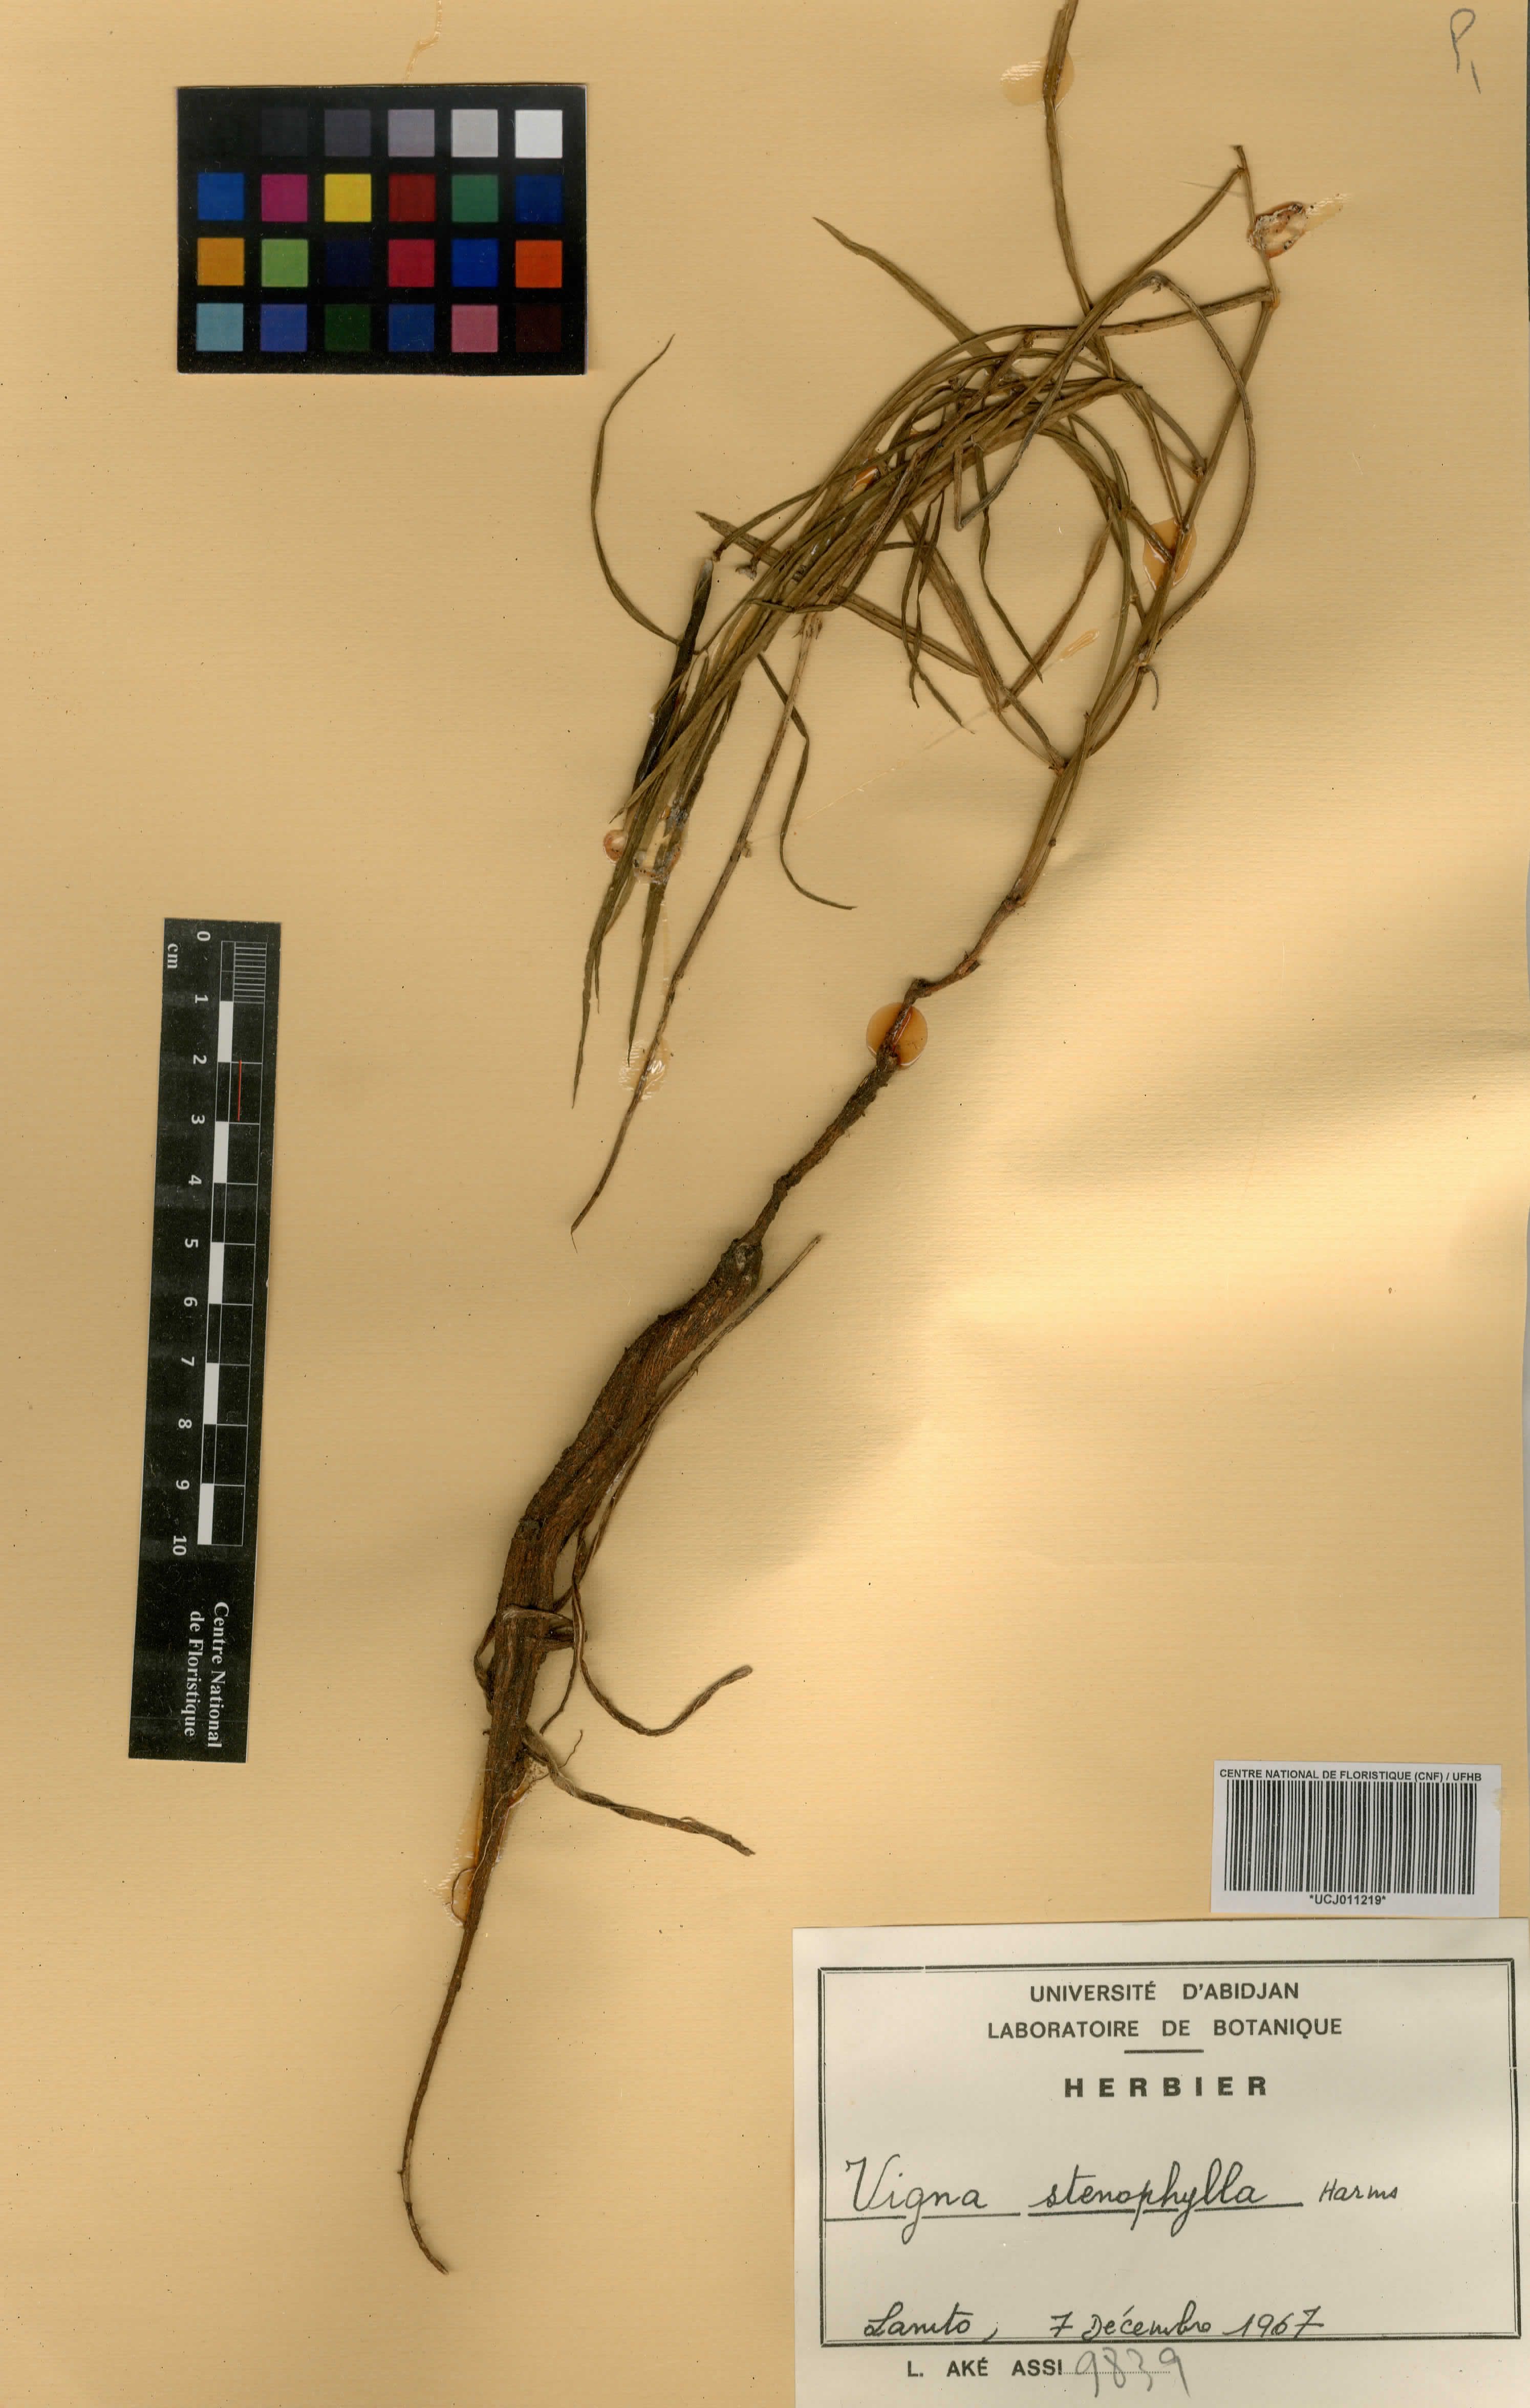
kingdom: Plantae
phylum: Tracheophyta
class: Magnoliopsida
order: Fabales
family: Fabaceae
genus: Vigna
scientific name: Vigna stenophylla
